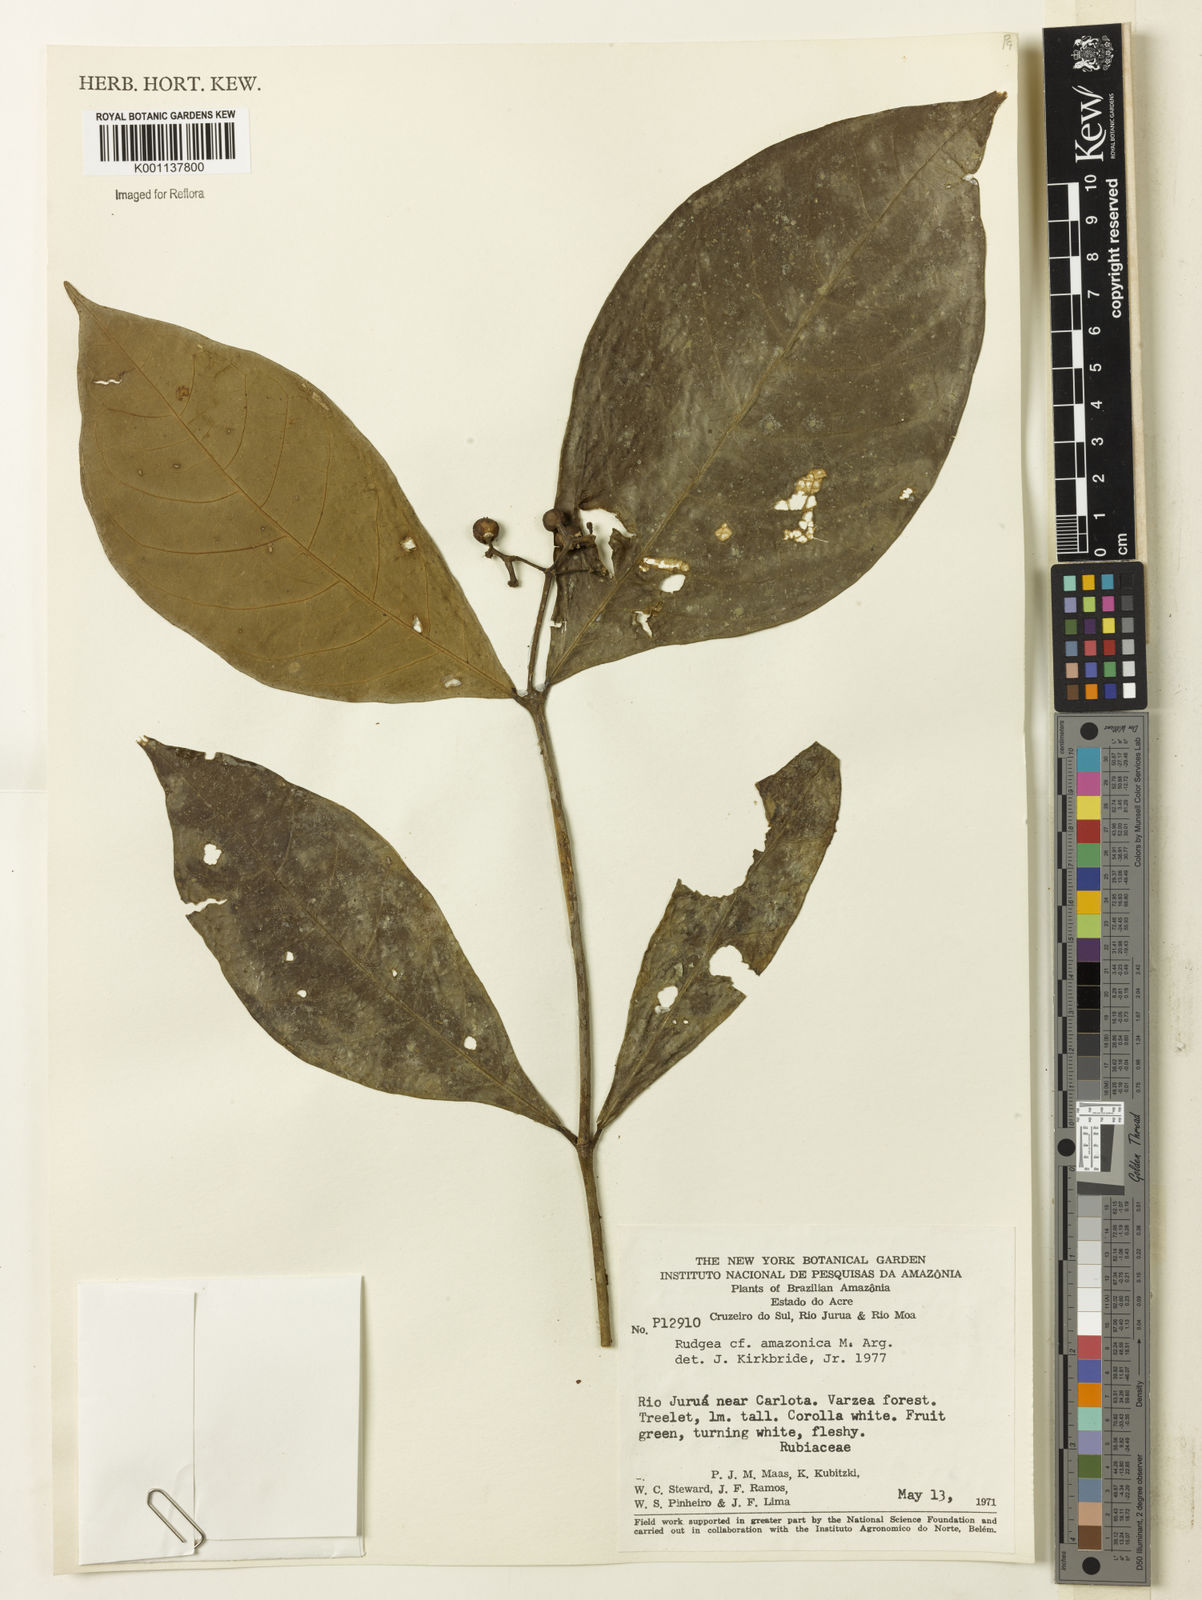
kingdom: Plantae
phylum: Tracheophyta
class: Magnoliopsida
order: Gentianales
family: Rubiaceae
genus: Coussarea
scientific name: Coussarea
